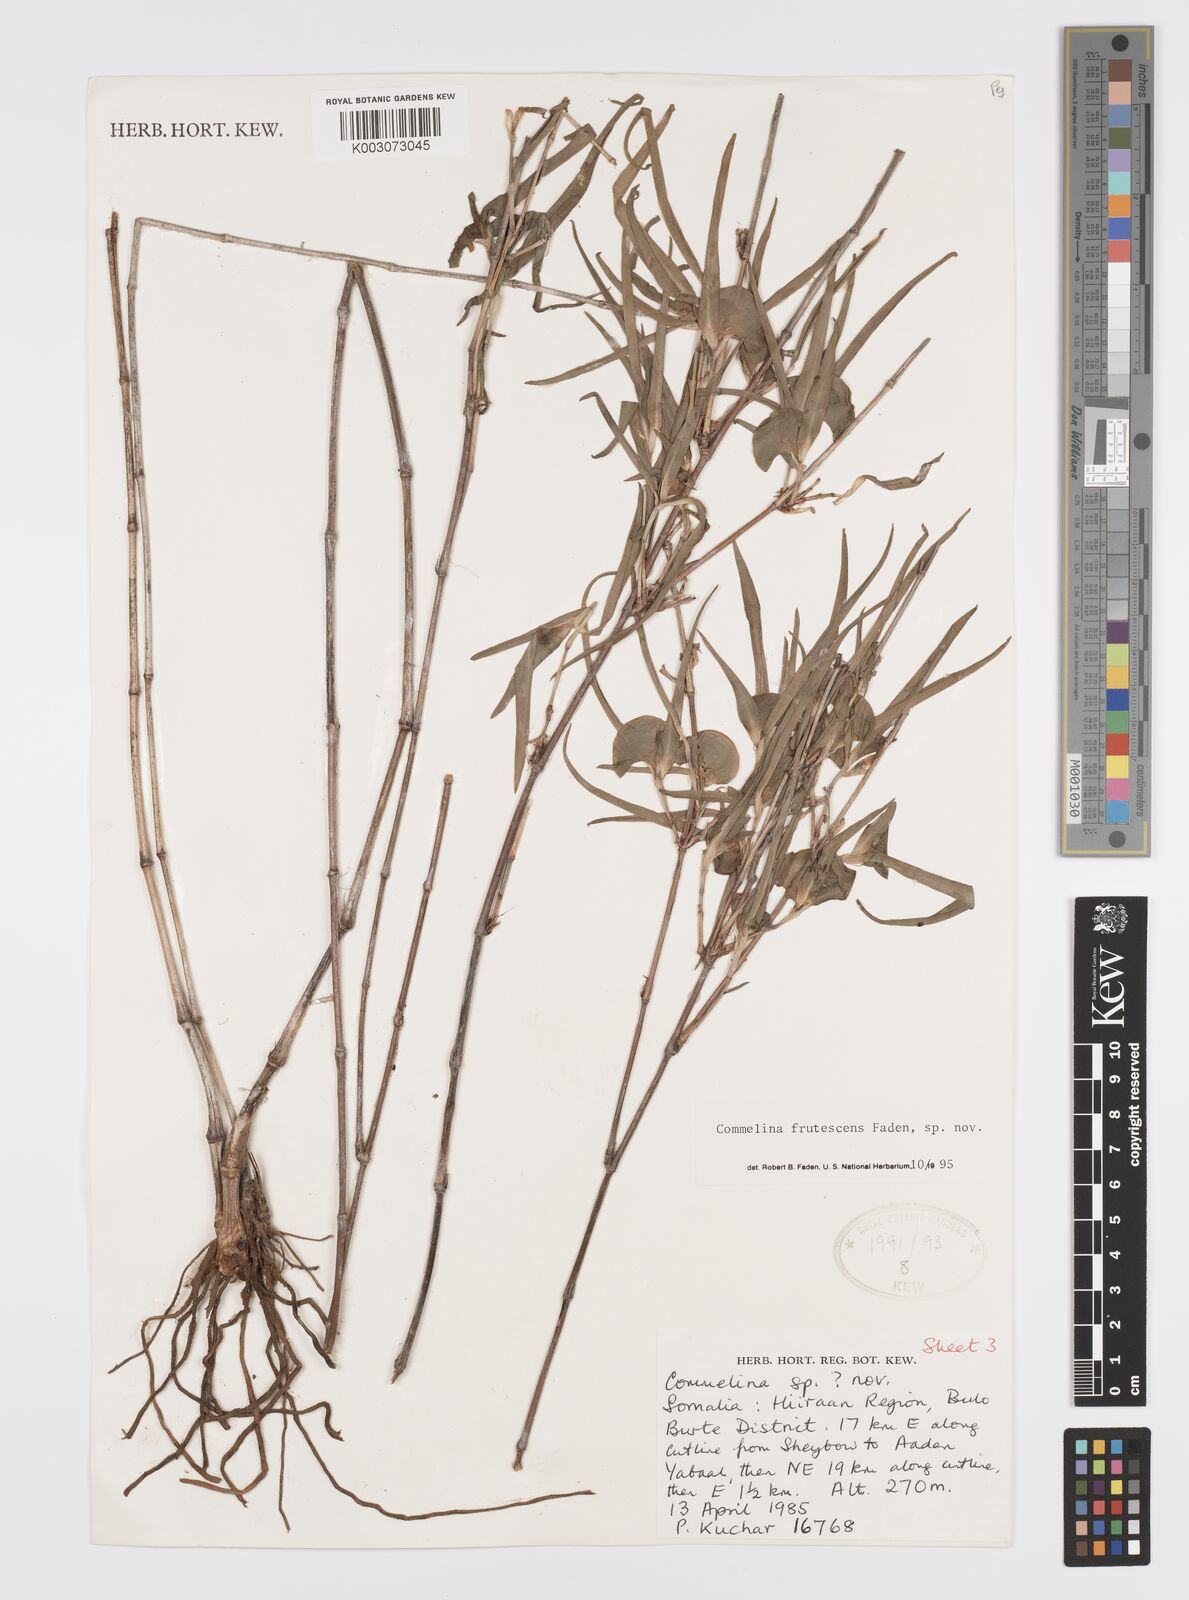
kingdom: Plantae
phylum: Tracheophyta
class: Liliopsida
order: Commelinales
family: Commelinaceae
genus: Commelina
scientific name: Commelina frutescens
